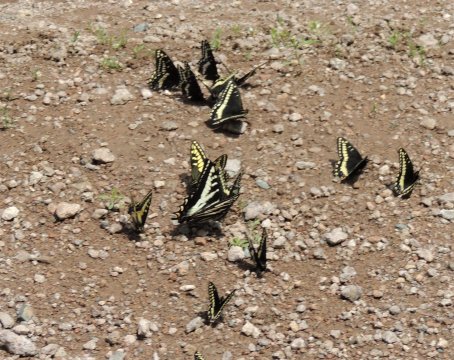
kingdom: Animalia
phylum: Arthropoda
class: Insecta
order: Lepidoptera
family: Papilionidae
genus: Pterourus
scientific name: Pterourus eurymedon
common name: Pale Swallowtail
